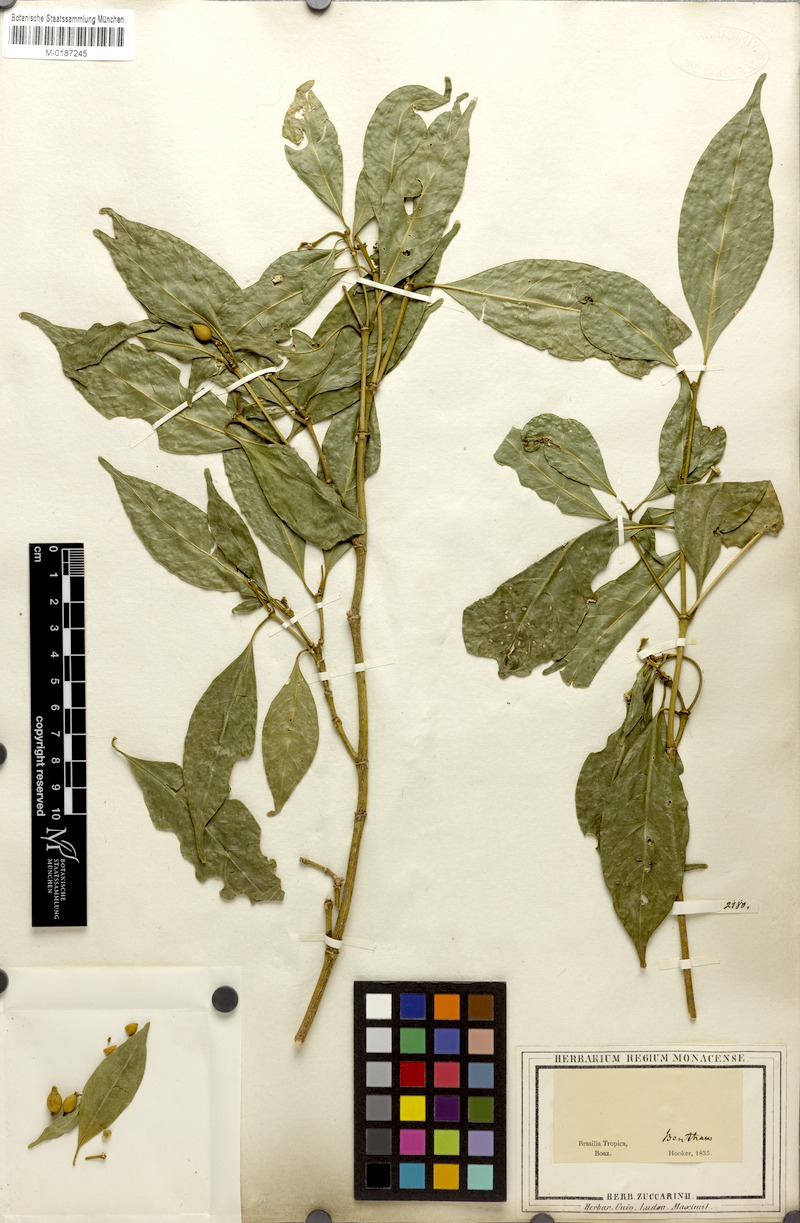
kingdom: Plantae
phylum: Tracheophyta
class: Magnoliopsida
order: Gentianales
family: Rubiaceae
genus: Coussarea
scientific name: Coussarea nodosa
